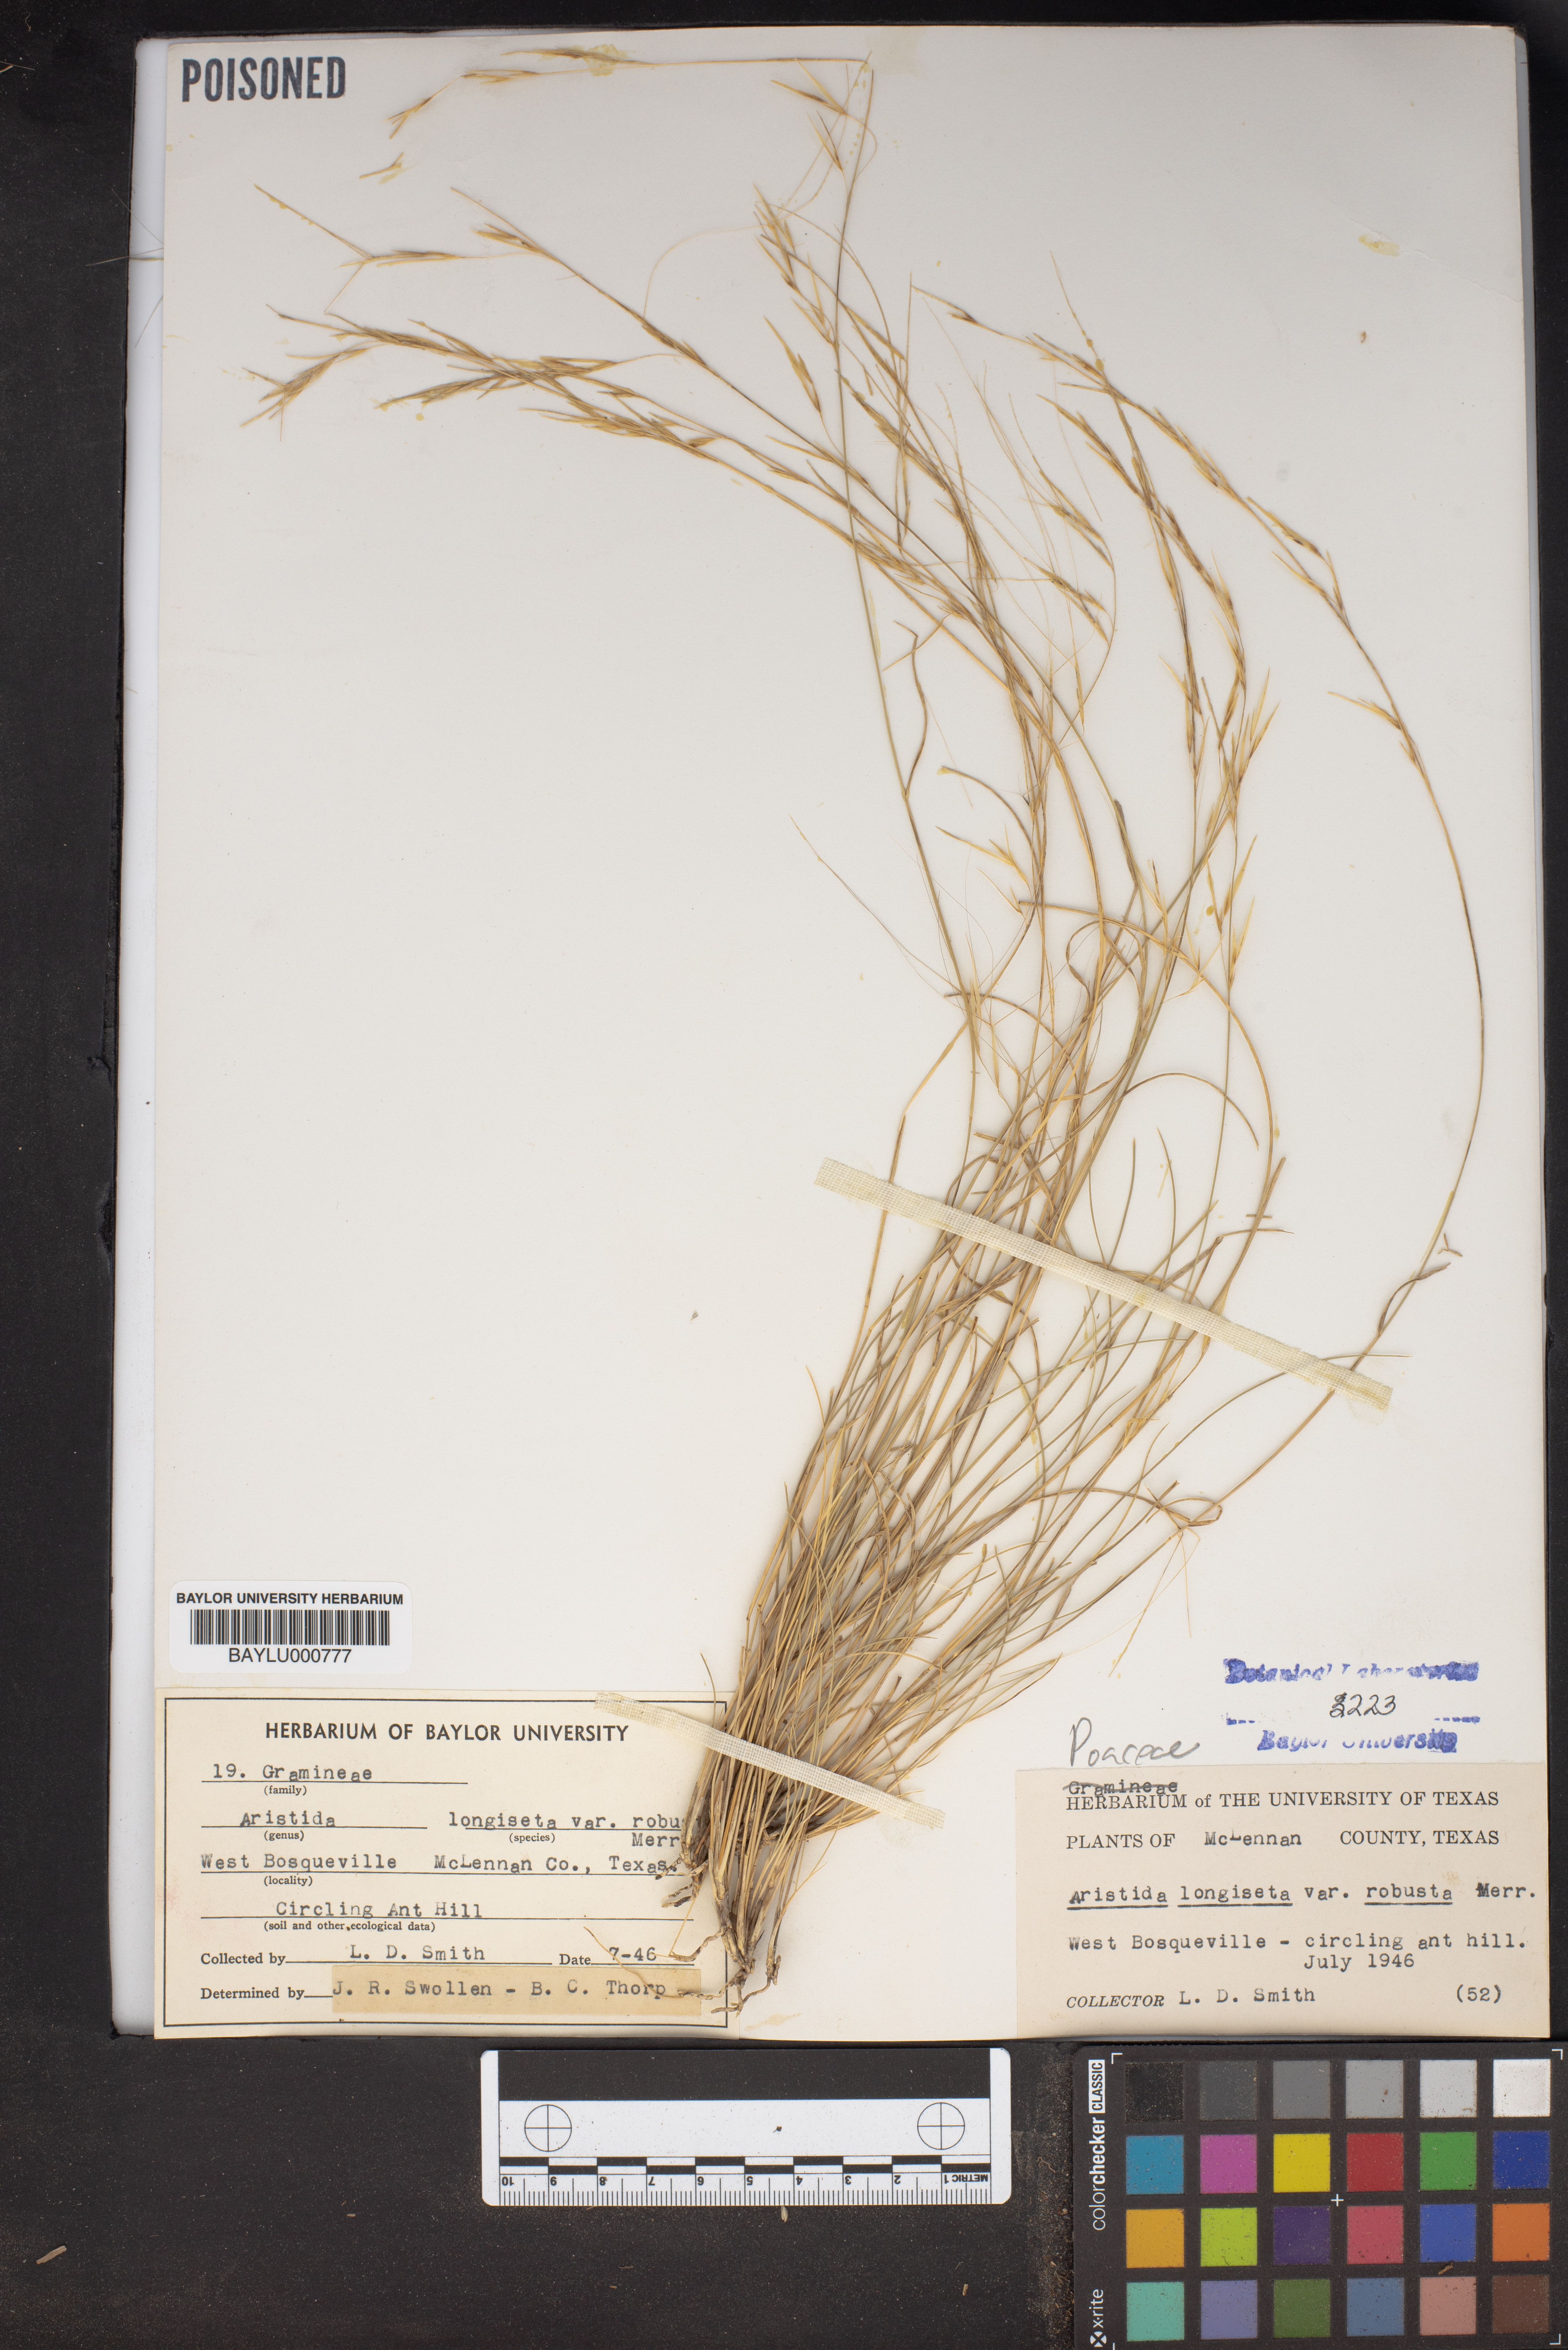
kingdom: Plantae
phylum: Tracheophyta
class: Liliopsida
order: Poales
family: Poaceae
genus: Aristida
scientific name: Aristida longiseta
